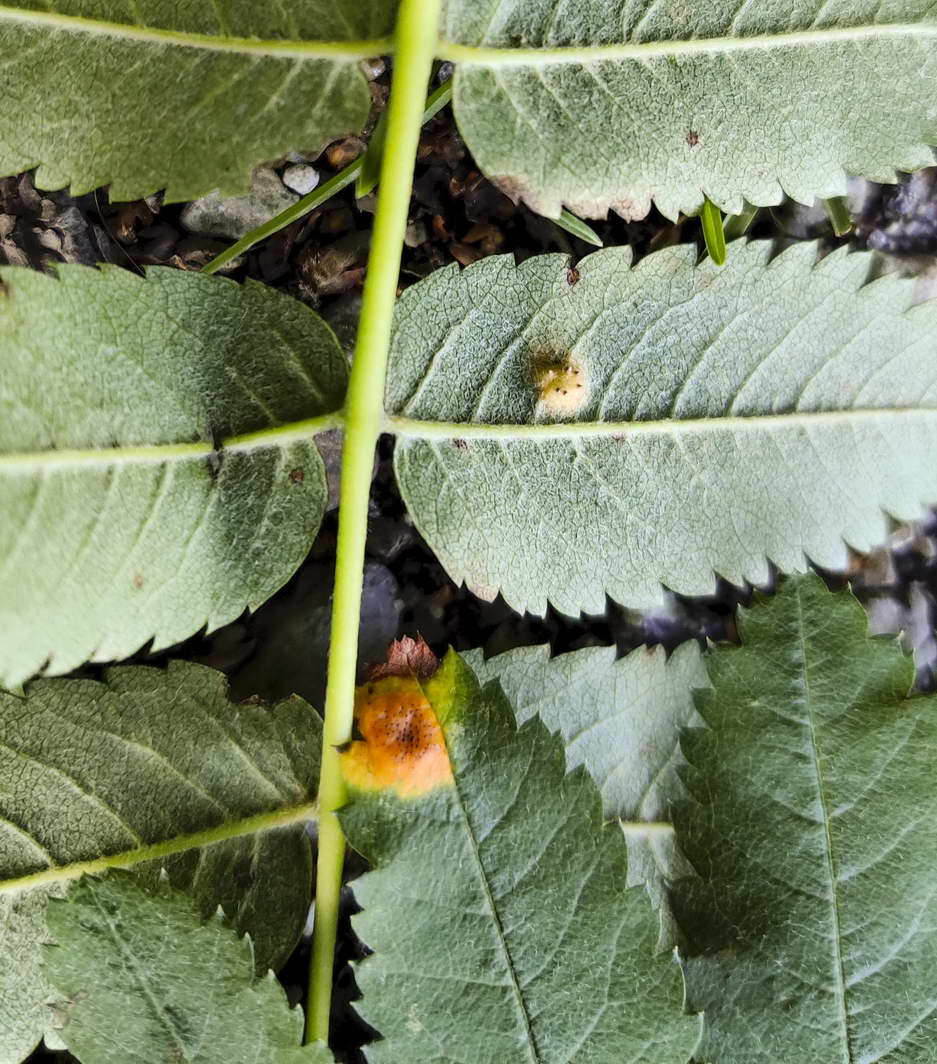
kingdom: Fungi
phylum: Basidiomycota
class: Pucciniomycetes
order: Pucciniales
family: Gymnosporangiaceae
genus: Gymnosporangium
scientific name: Gymnosporangium cornutum
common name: rønnehorn-bævrerust
